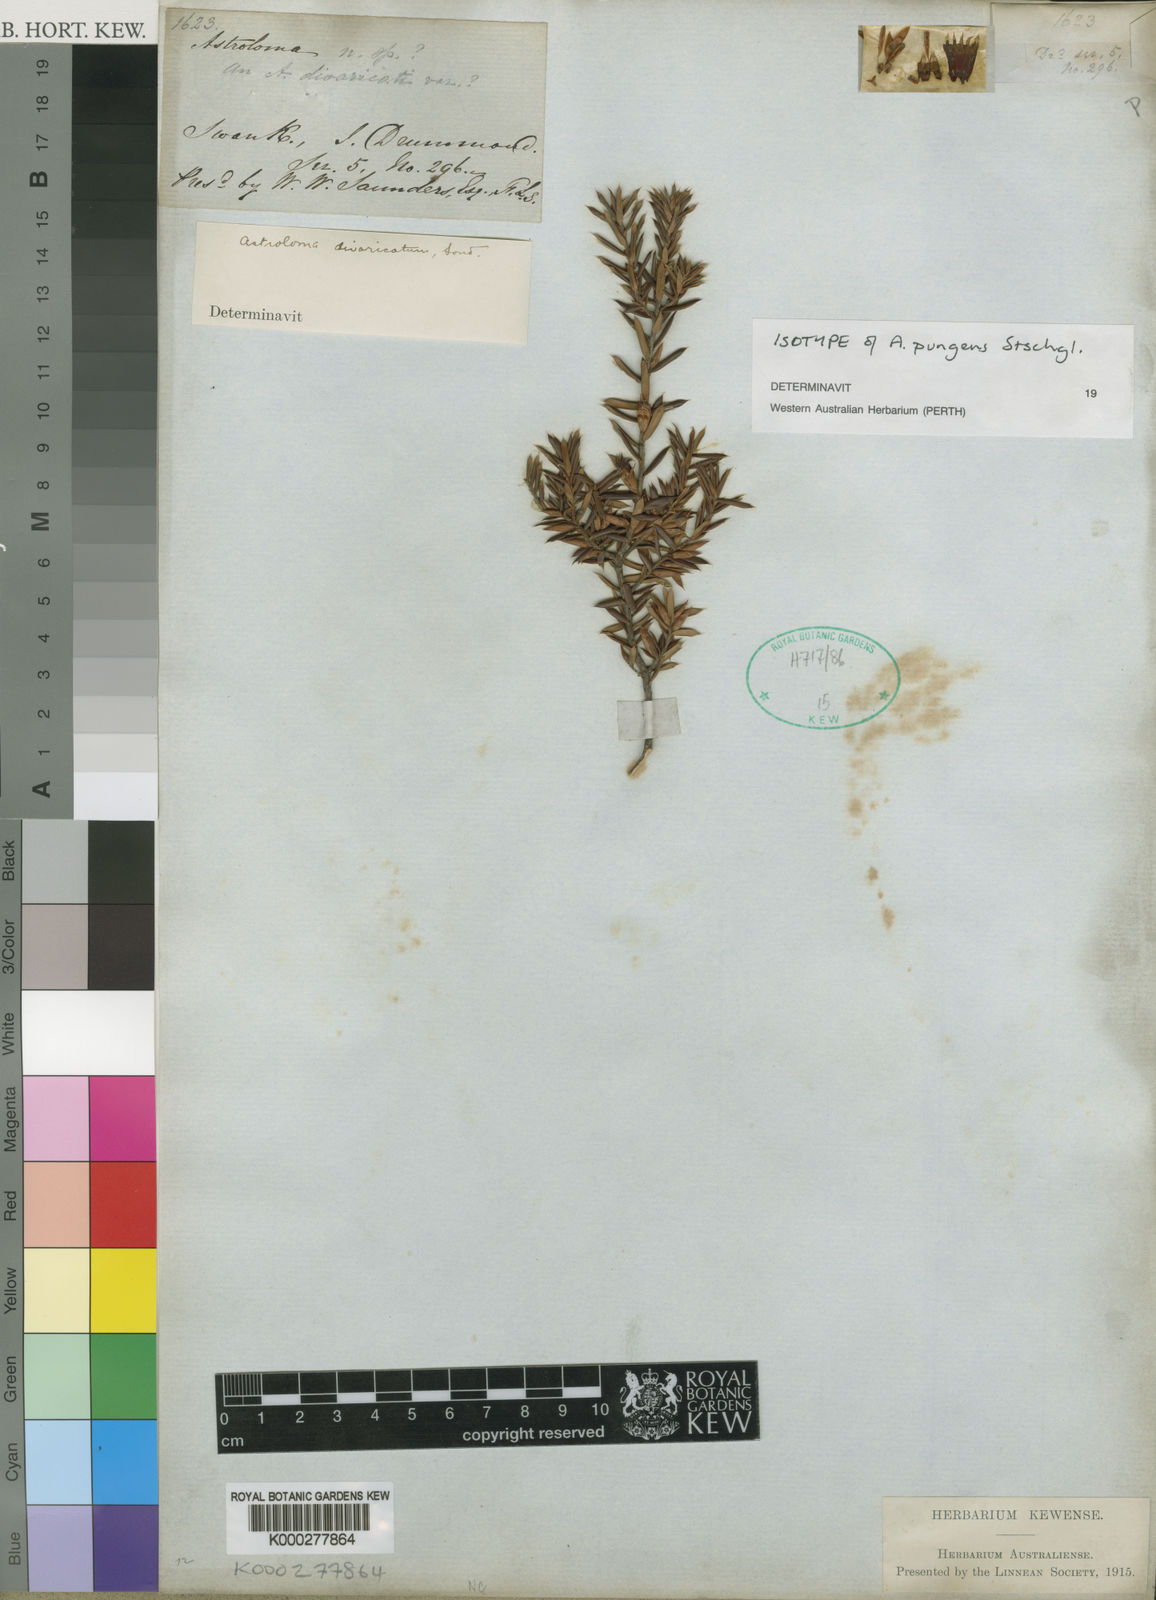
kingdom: Plantae
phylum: Tracheophyta
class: Magnoliopsida
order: Ericales
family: Ericaceae
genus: Styphelia
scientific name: Styphelia epacridis
